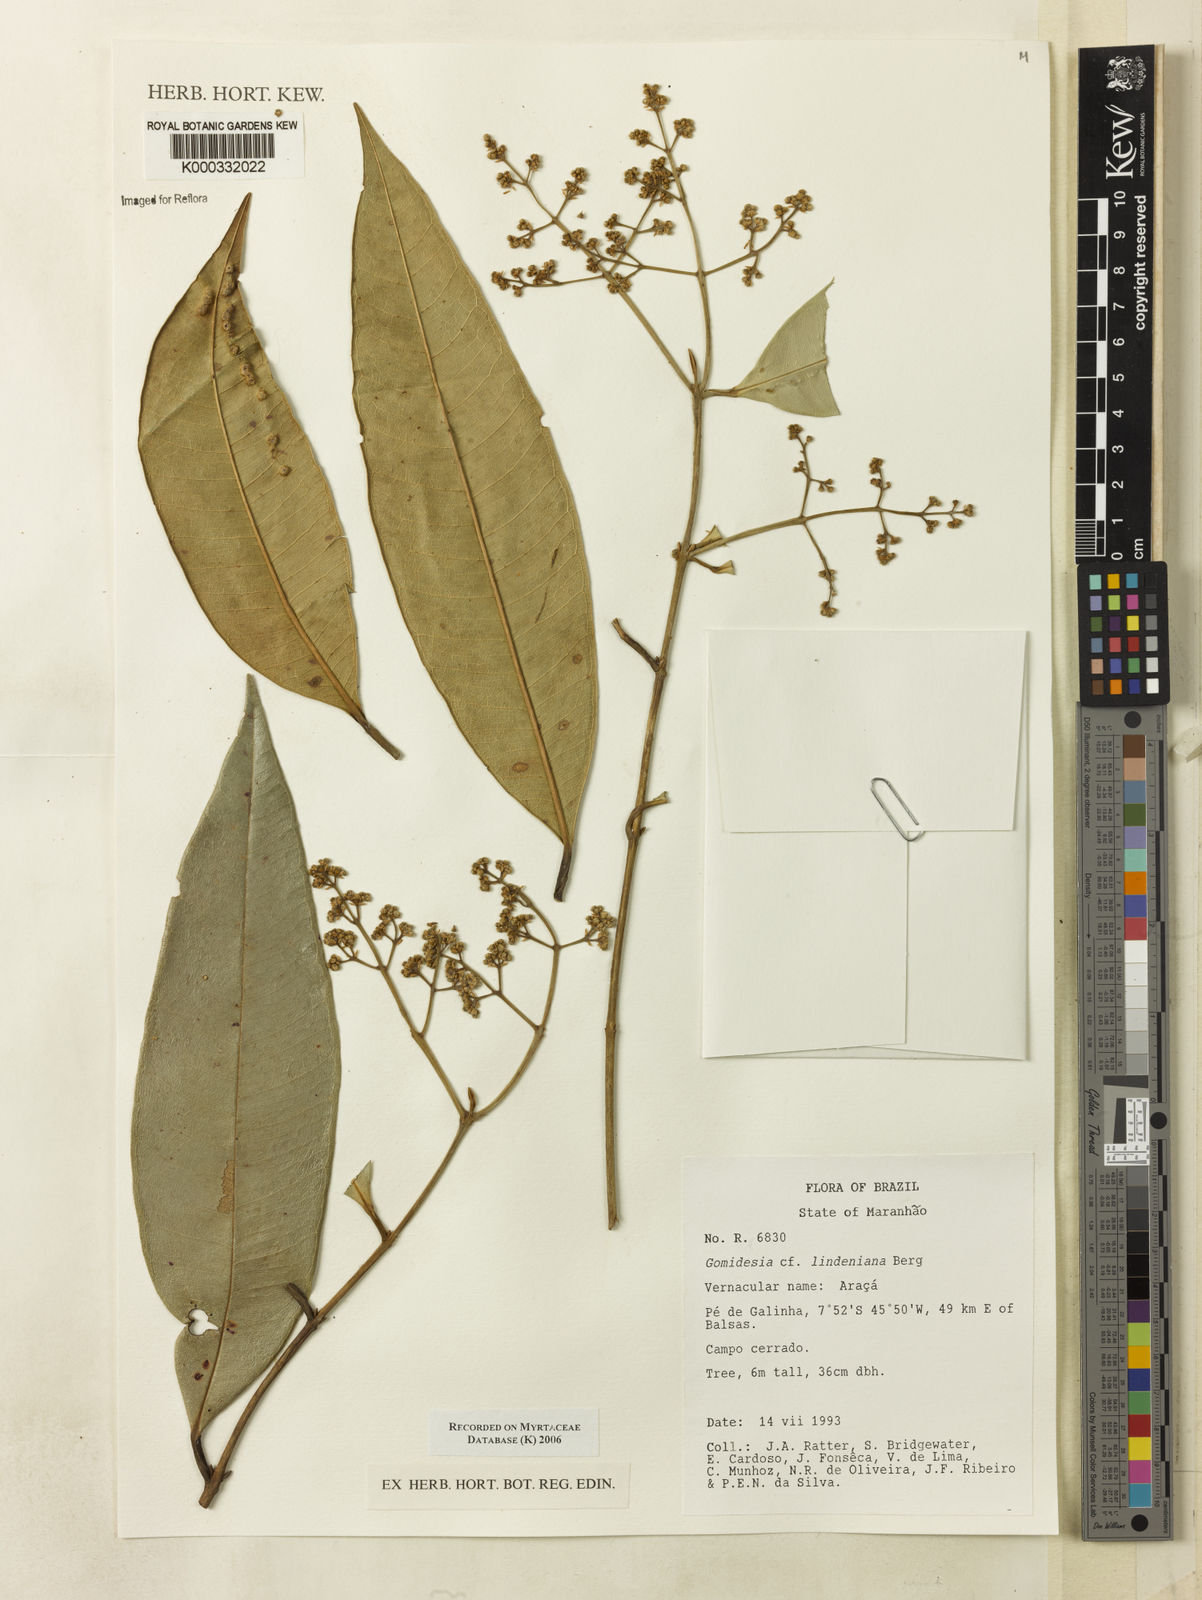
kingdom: Plantae
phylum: Tracheophyta
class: Magnoliopsida
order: Myrtales
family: Myrtaceae
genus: Myrcia
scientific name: Myrcia fenzliana
